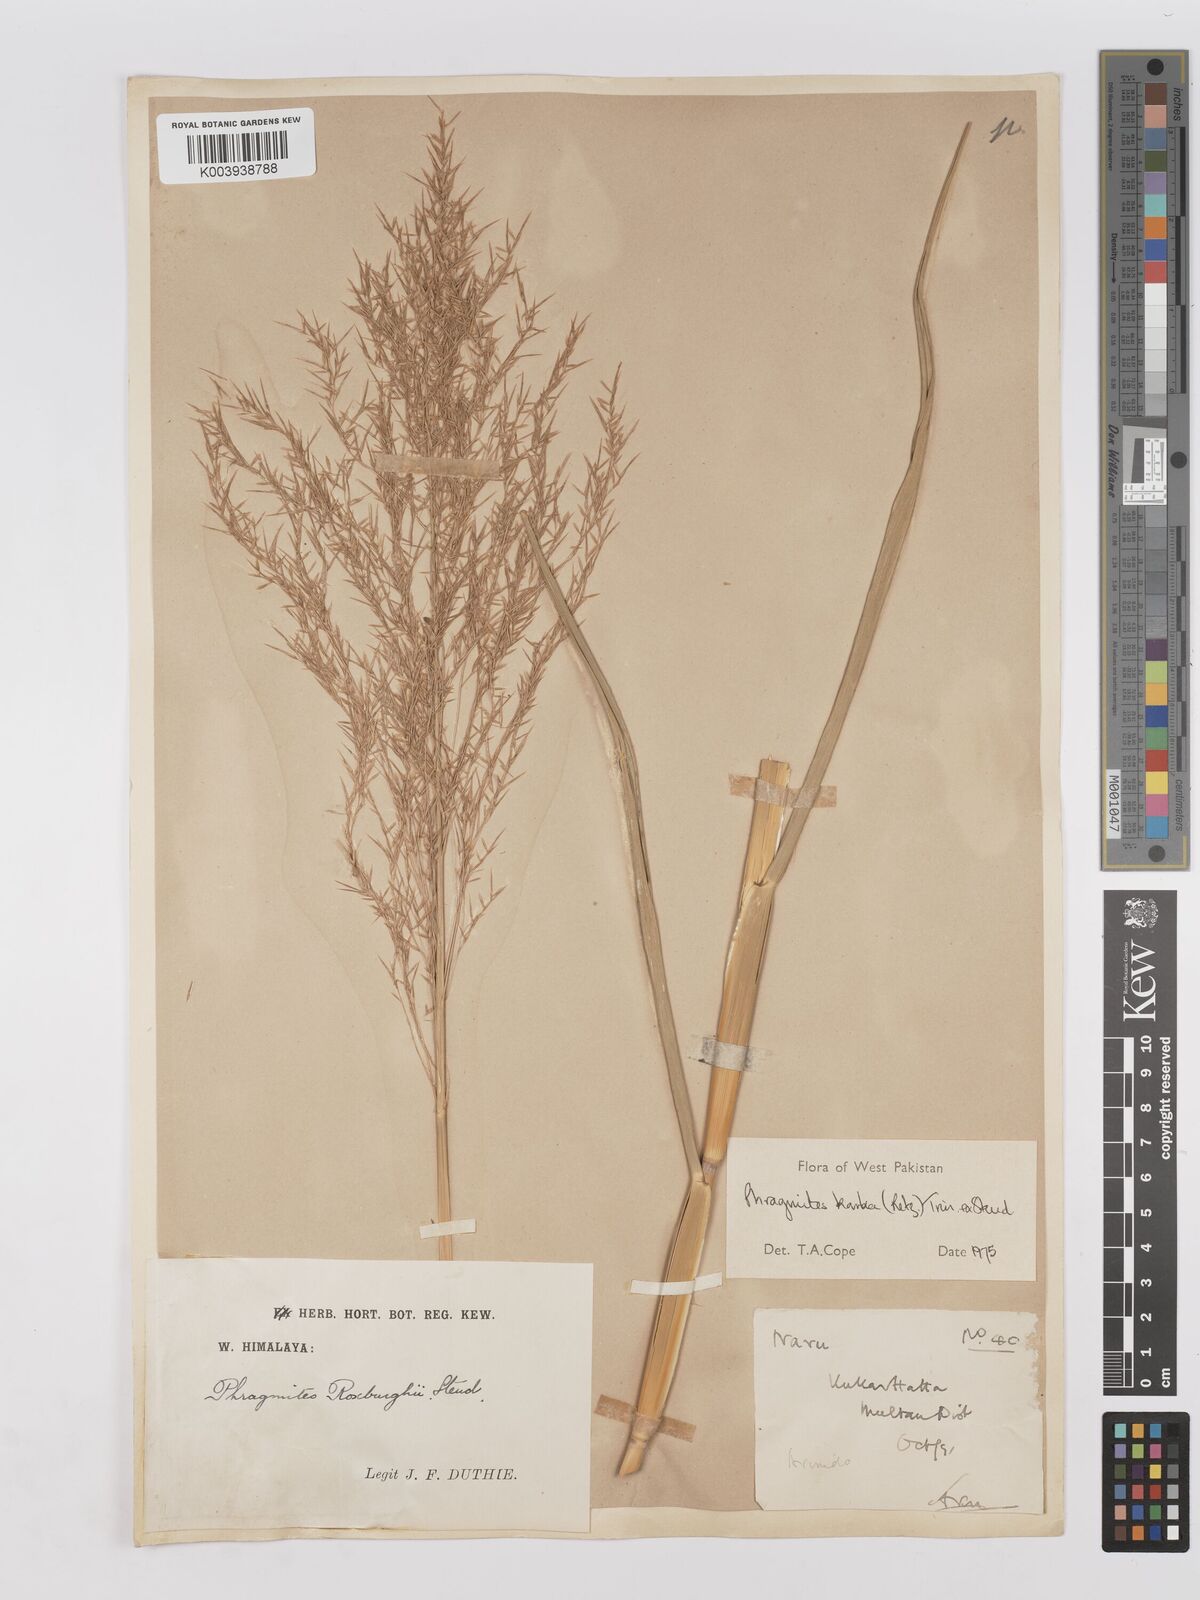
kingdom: Plantae
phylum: Tracheophyta
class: Liliopsida
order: Poales
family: Poaceae
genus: Phragmites
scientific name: Phragmites karka
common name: Tropical reed
